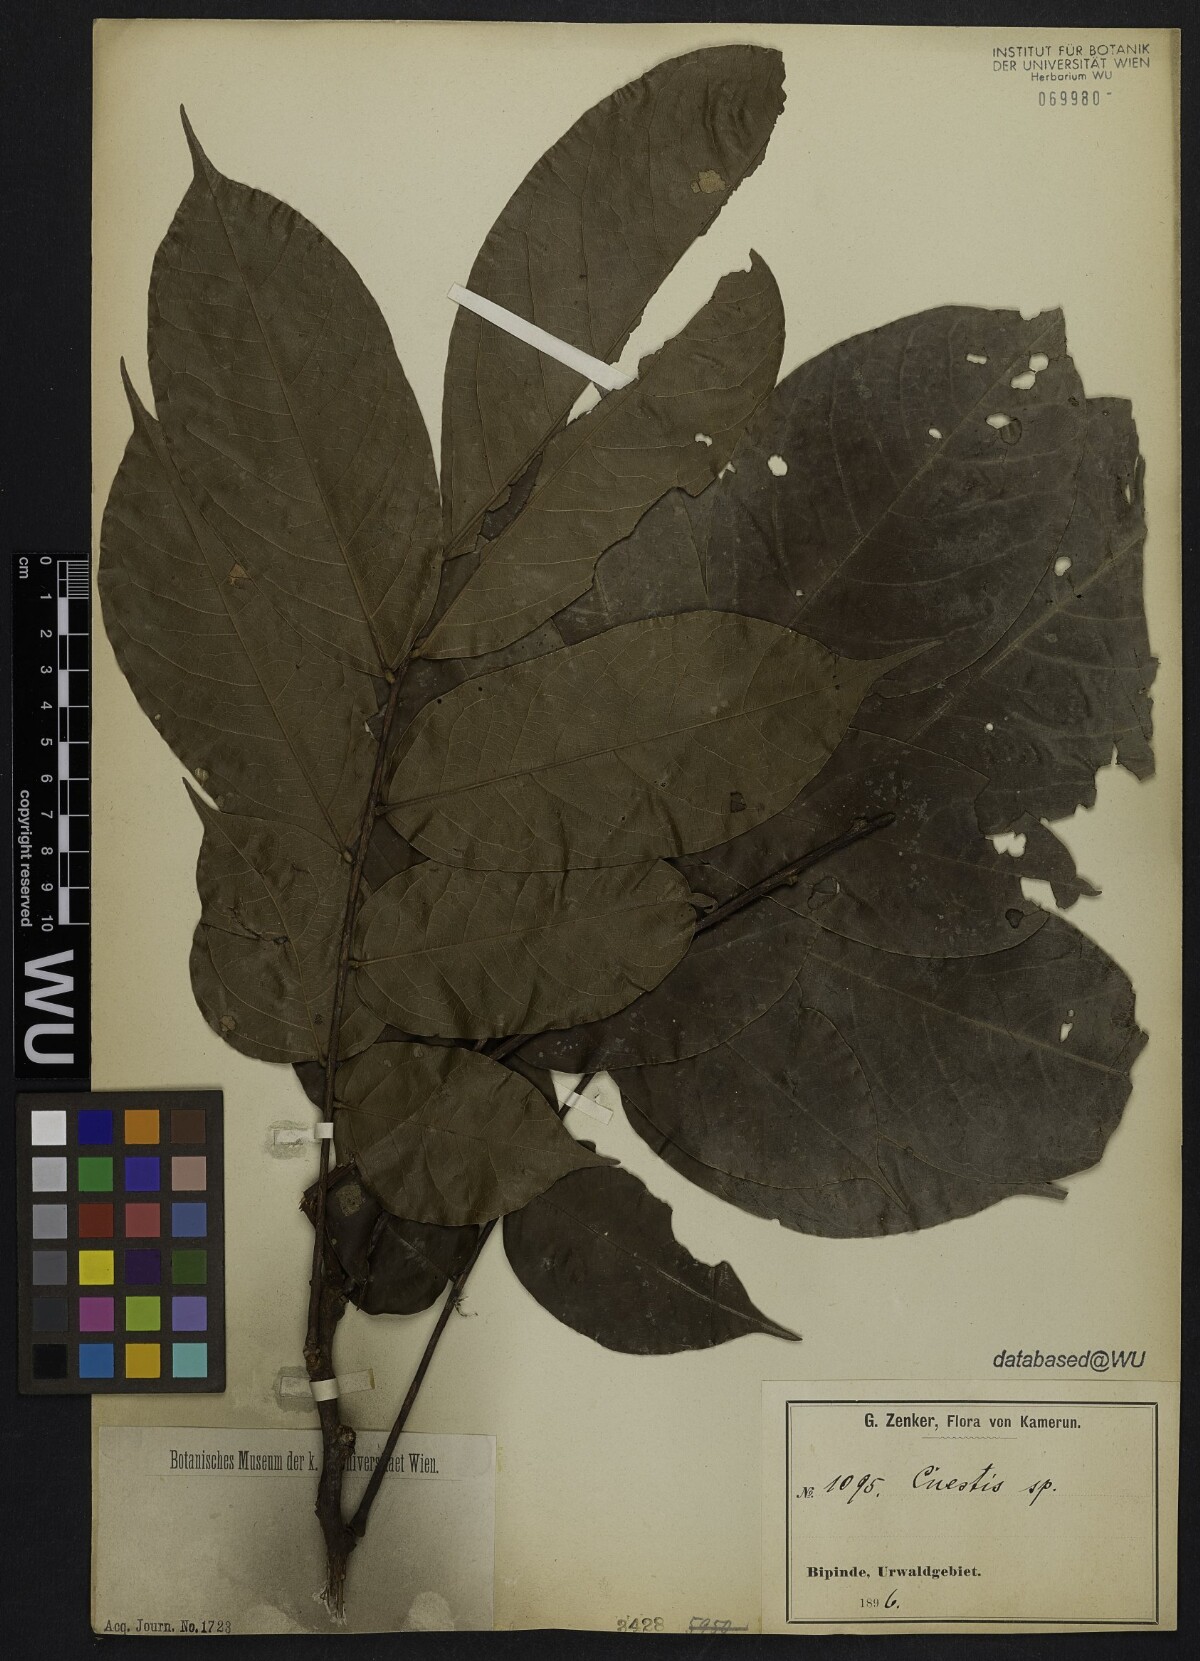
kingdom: Plantae
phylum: Tracheophyta
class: Magnoliopsida
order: Oxalidales
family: Connaraceae
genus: Cnestis
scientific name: Cnestis macrophylla
